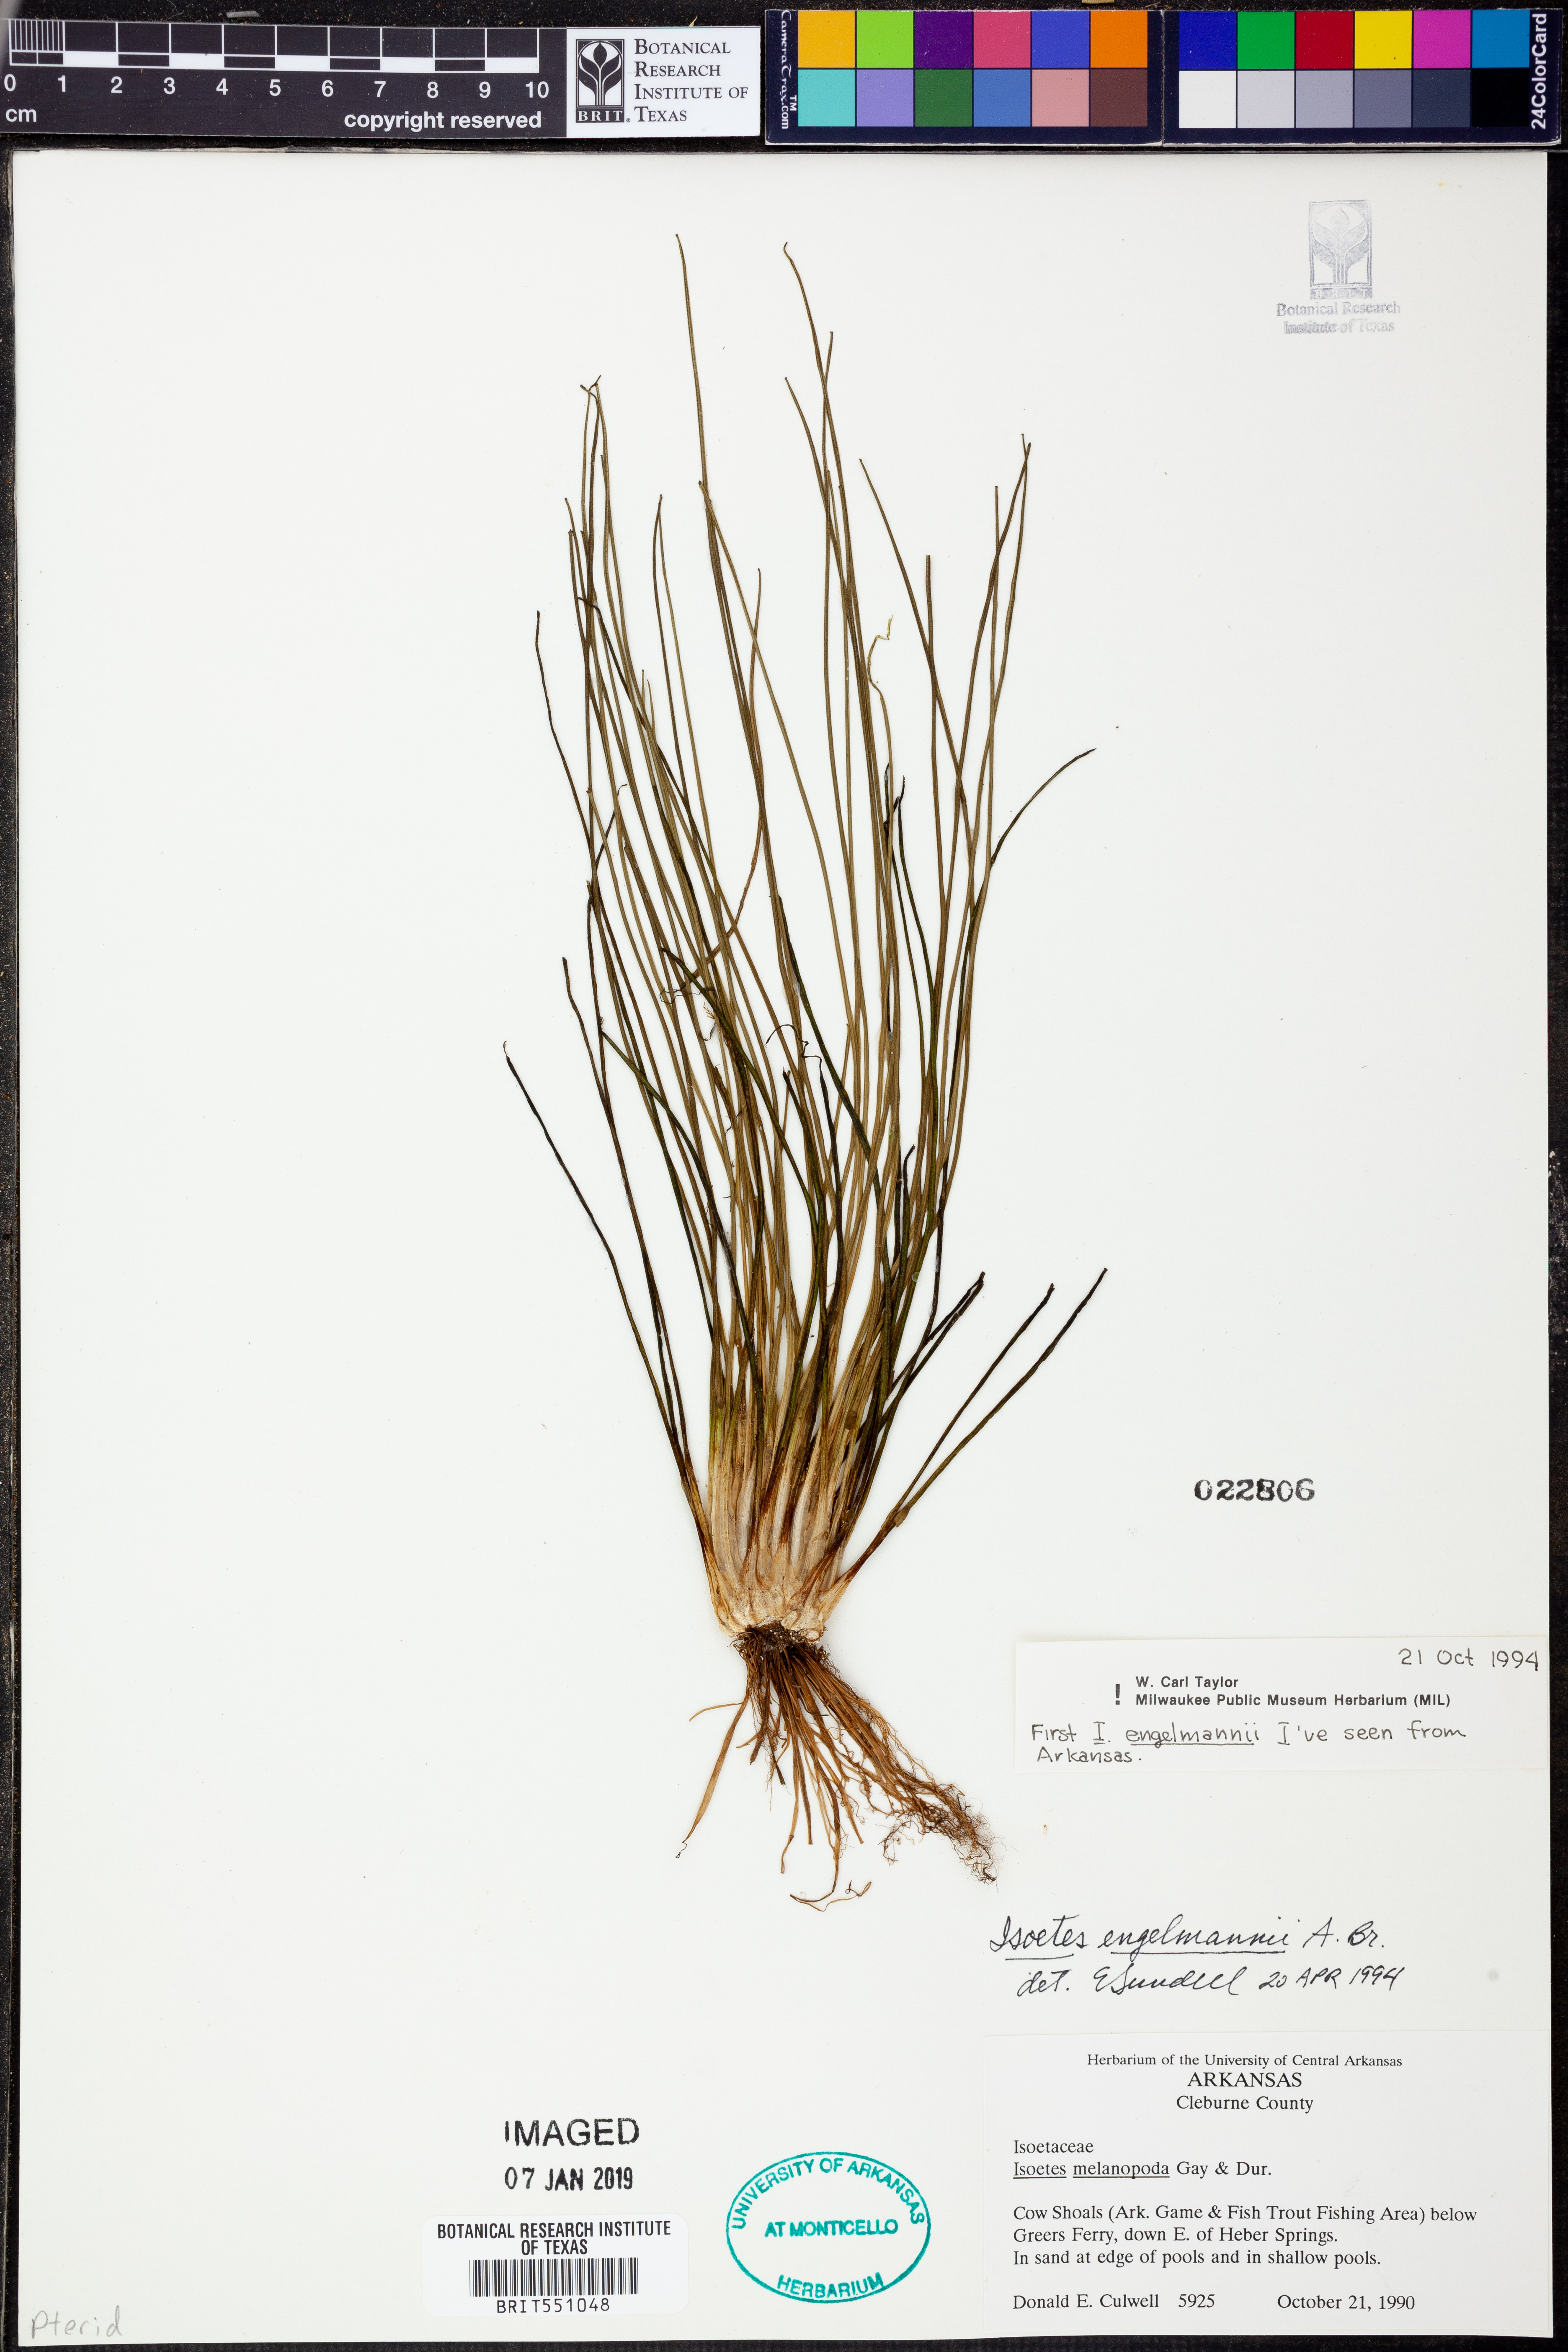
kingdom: Plantae
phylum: Tracheophyta
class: Lycopodiopsida
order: Isoetales
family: Isoetaceae
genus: Isoetes
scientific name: Isoetes engelmannii
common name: Engelmann's quillwort
